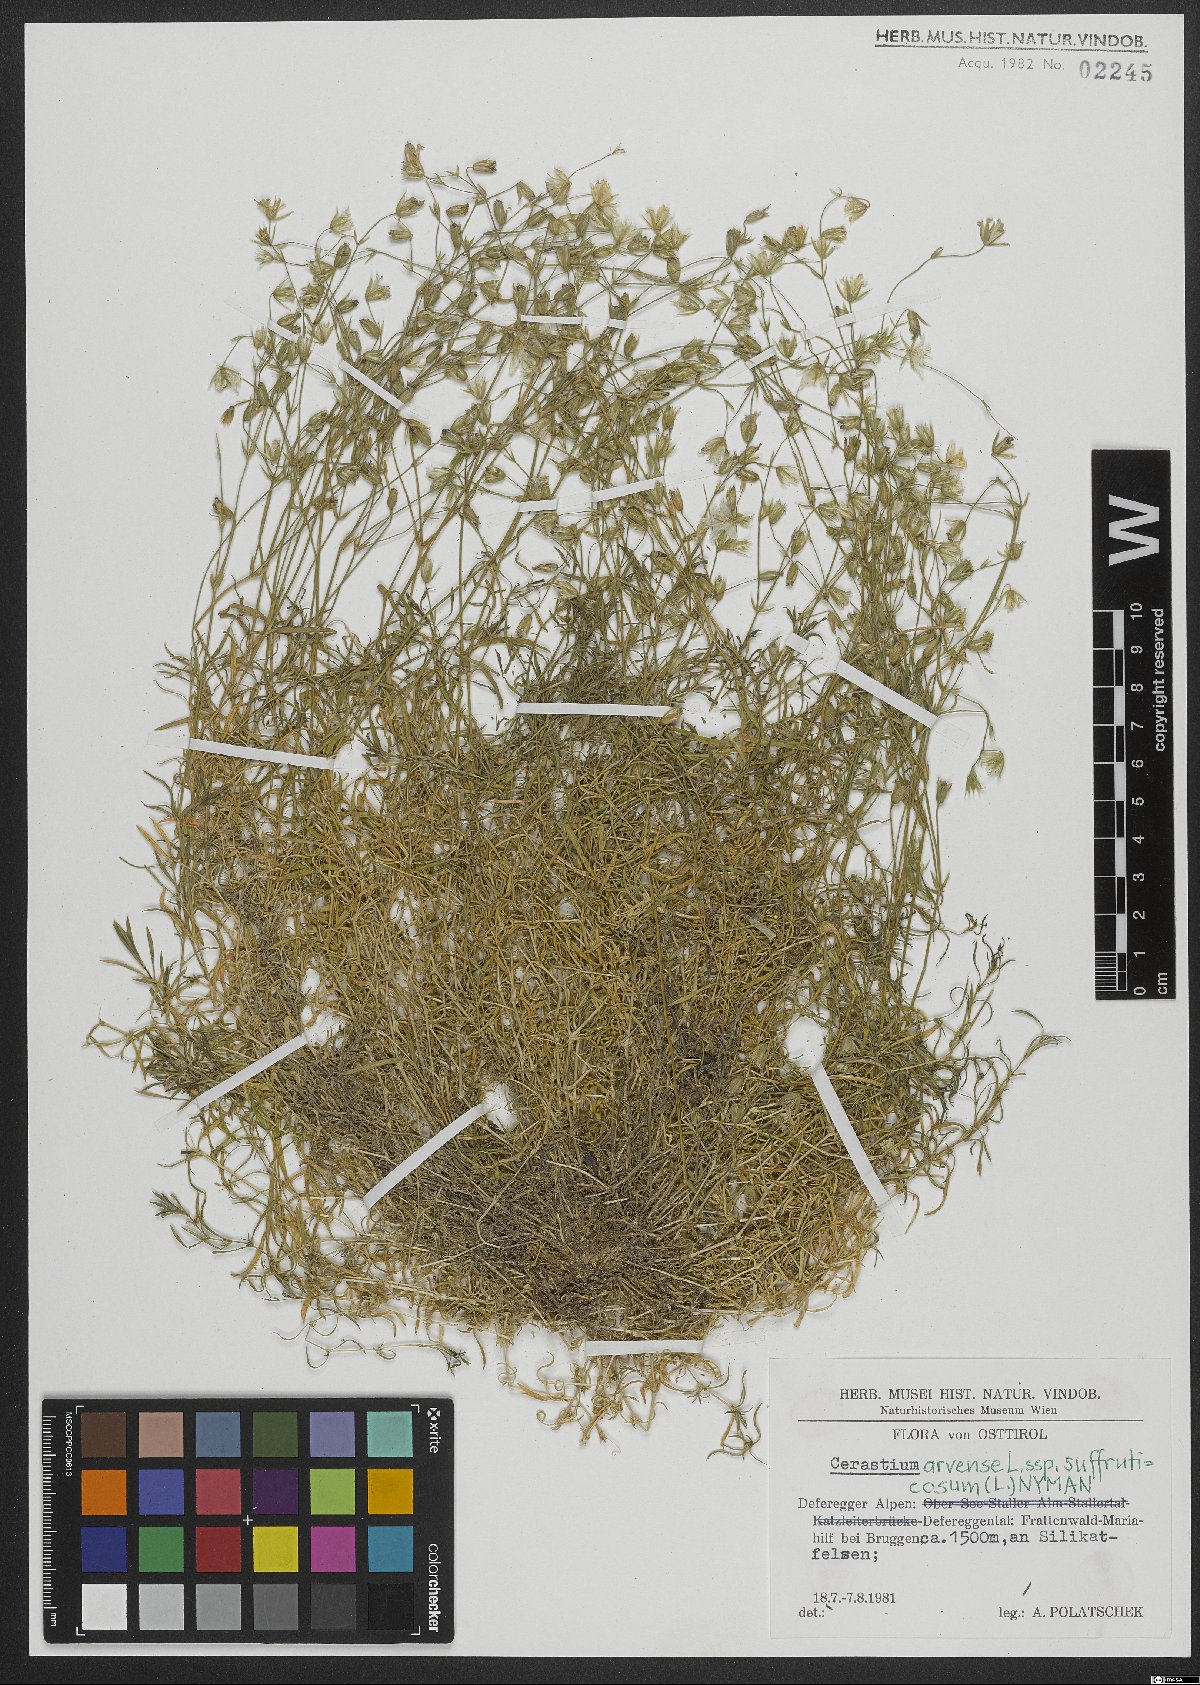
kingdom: Plantae
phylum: Tracheophyta
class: Magnoliopsida
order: Caryophyllales
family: Caryophyllaceae
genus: Cerastium
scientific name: Cerastium arvense
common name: Field mouse-ear
